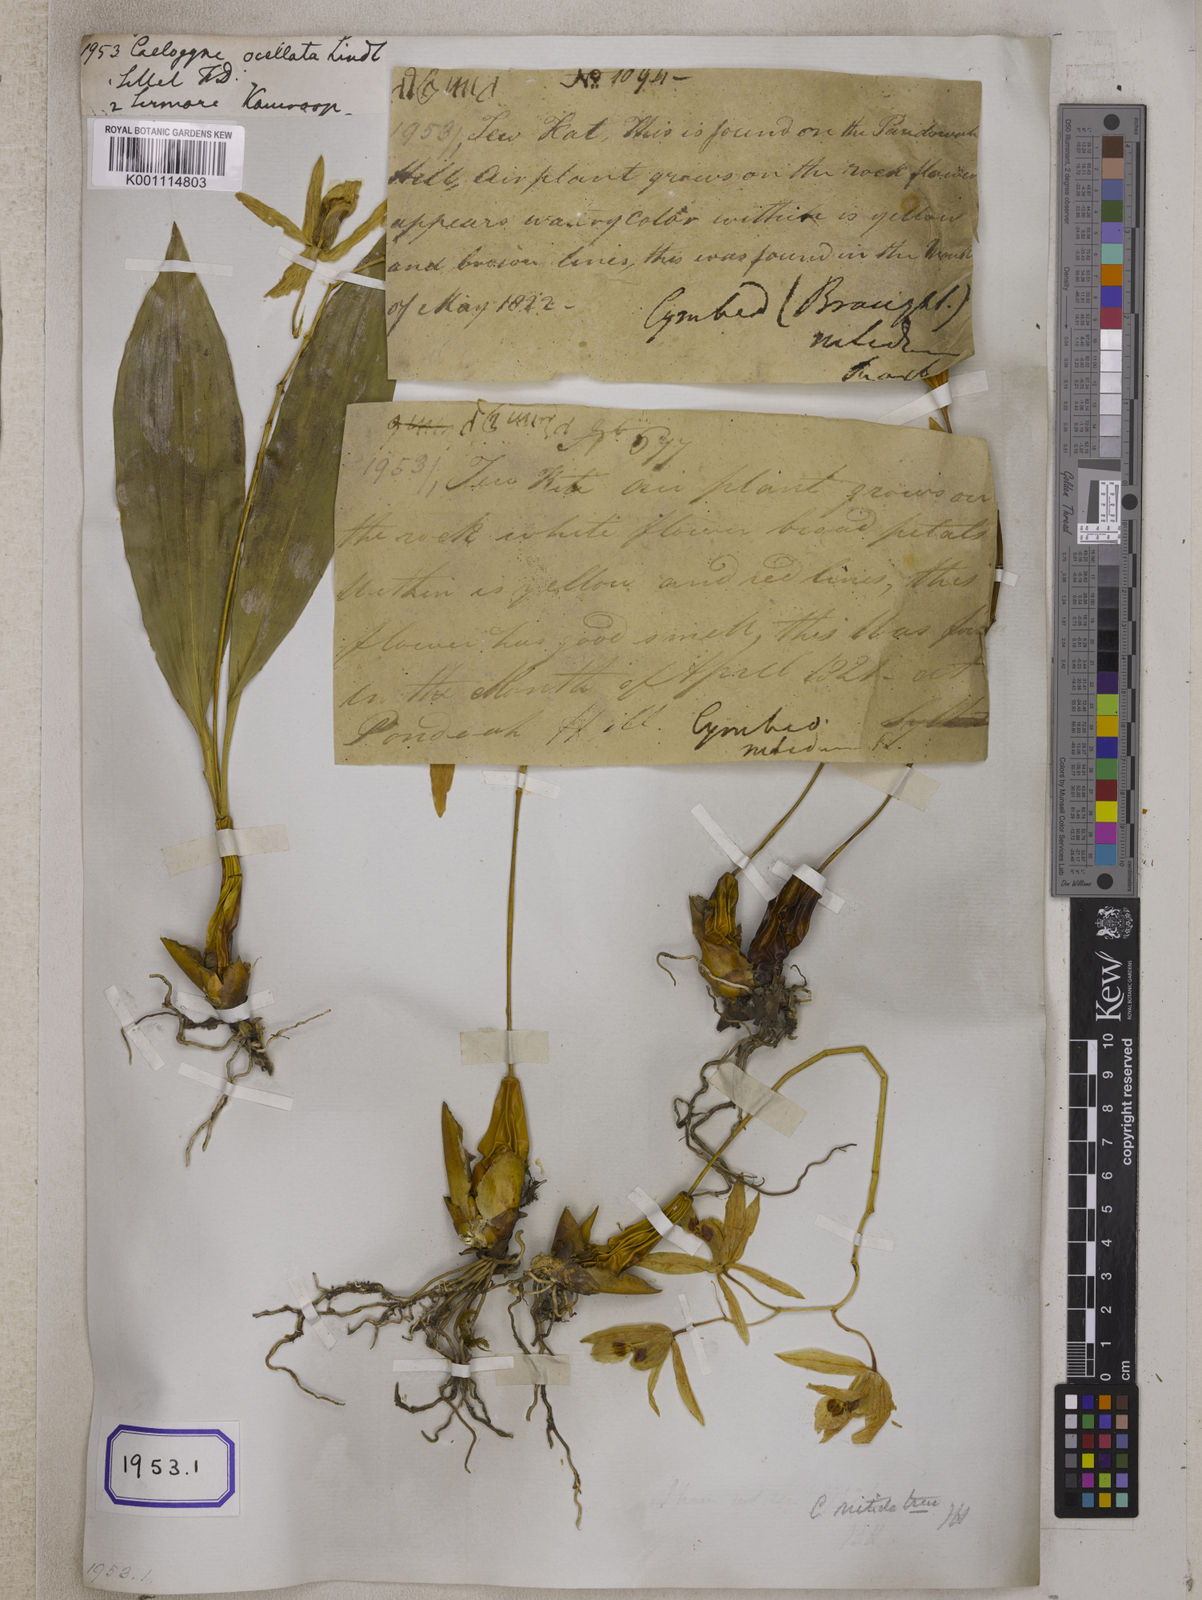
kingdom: Plantae
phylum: Tracheophyta
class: Liliopsida
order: Asparagales
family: Orchidaceae
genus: Coelogyne
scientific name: Coelogyne punctulata
